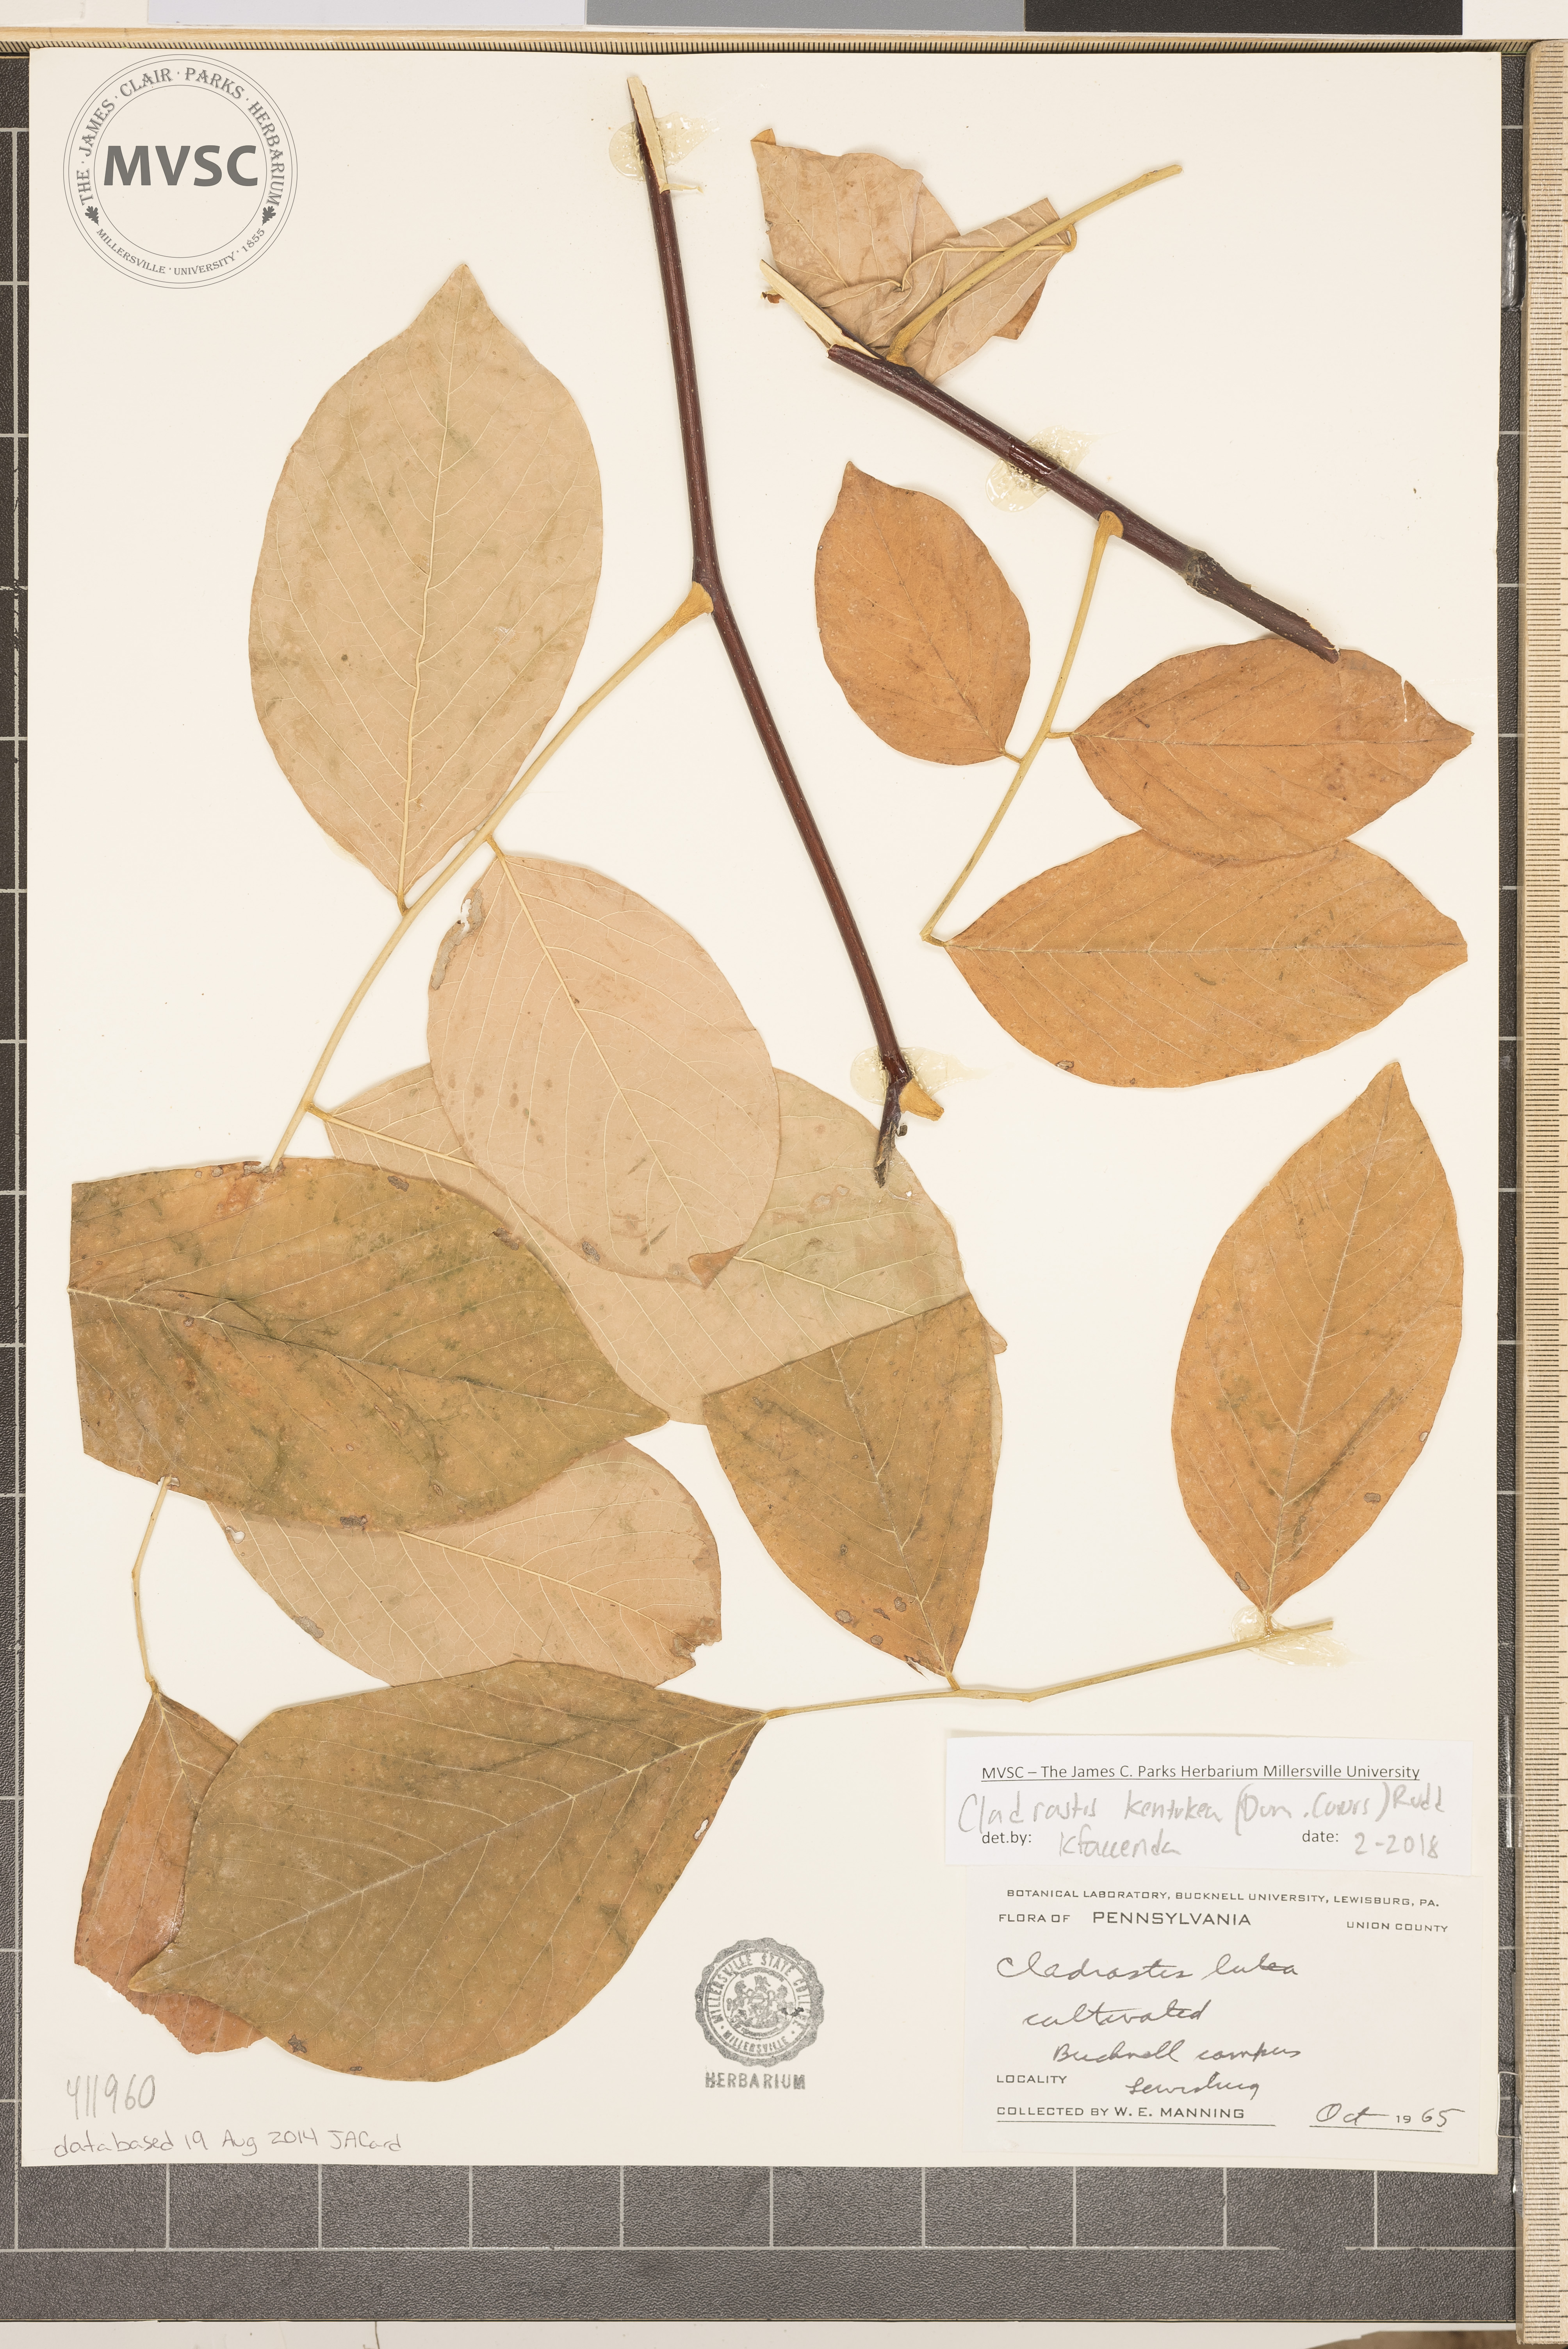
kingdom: Plantae
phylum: Tracheophyta
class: Magnoliopsida
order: Fabales
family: Fabaceae
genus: Cladrastis
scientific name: Cladrastis kentukea
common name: Yellowwood
